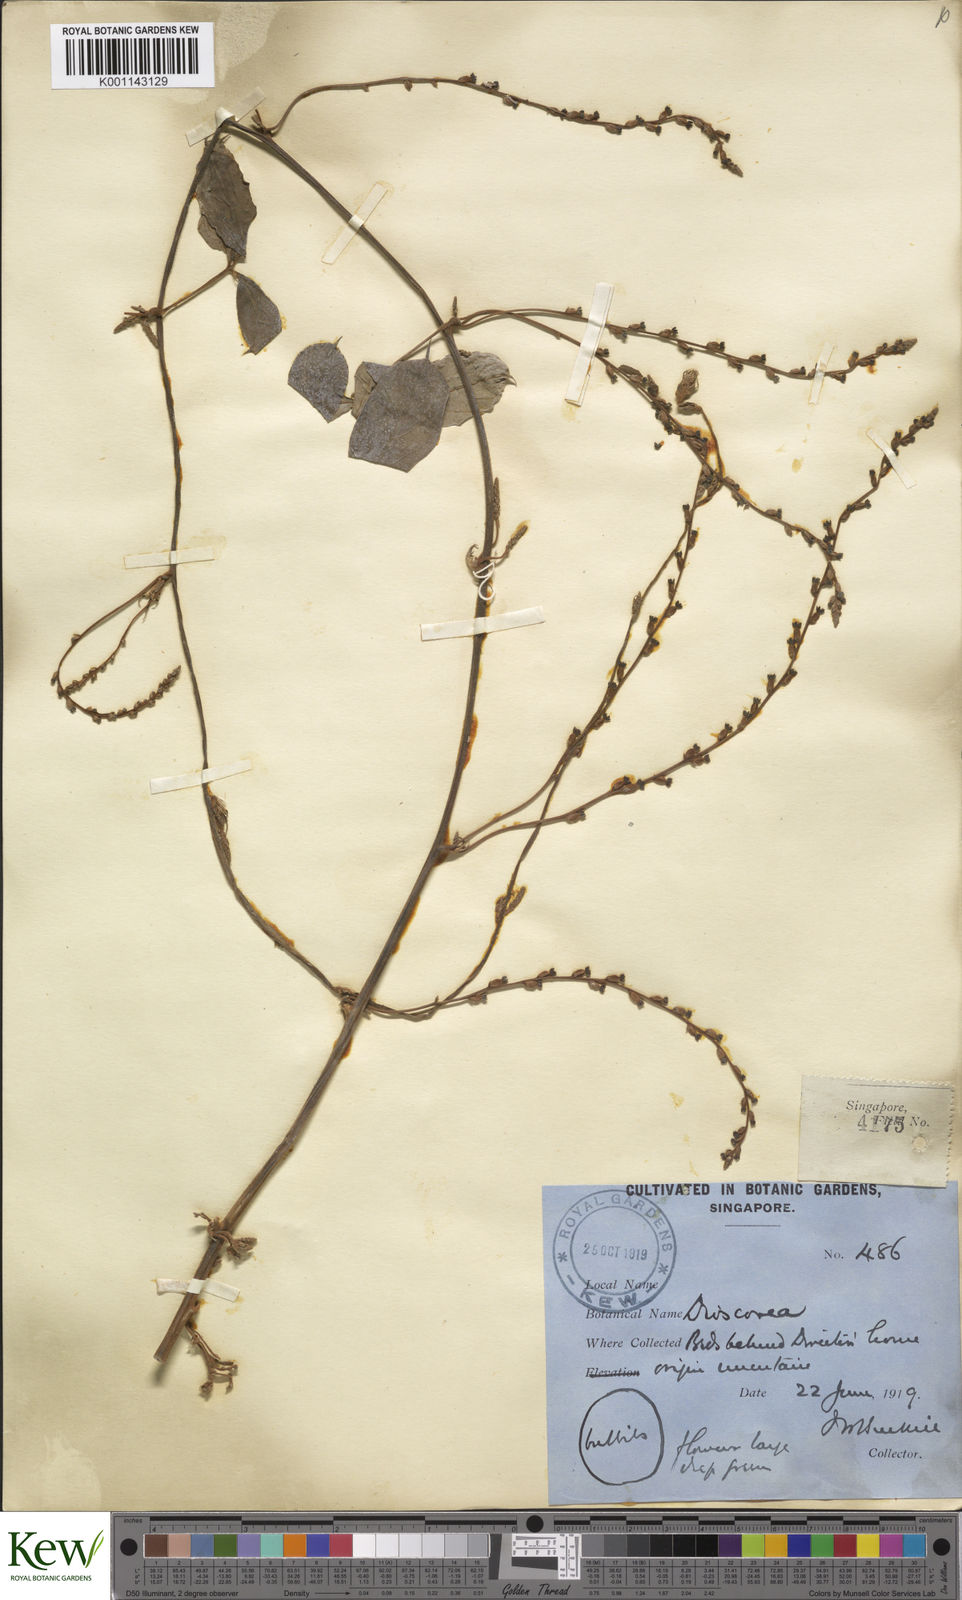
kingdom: Plantae
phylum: Tracheophyta
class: Liliopsida
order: Dioscoreales
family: Dioscoreaceae
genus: Dioscorea
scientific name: Dioscorea pentaphylla
